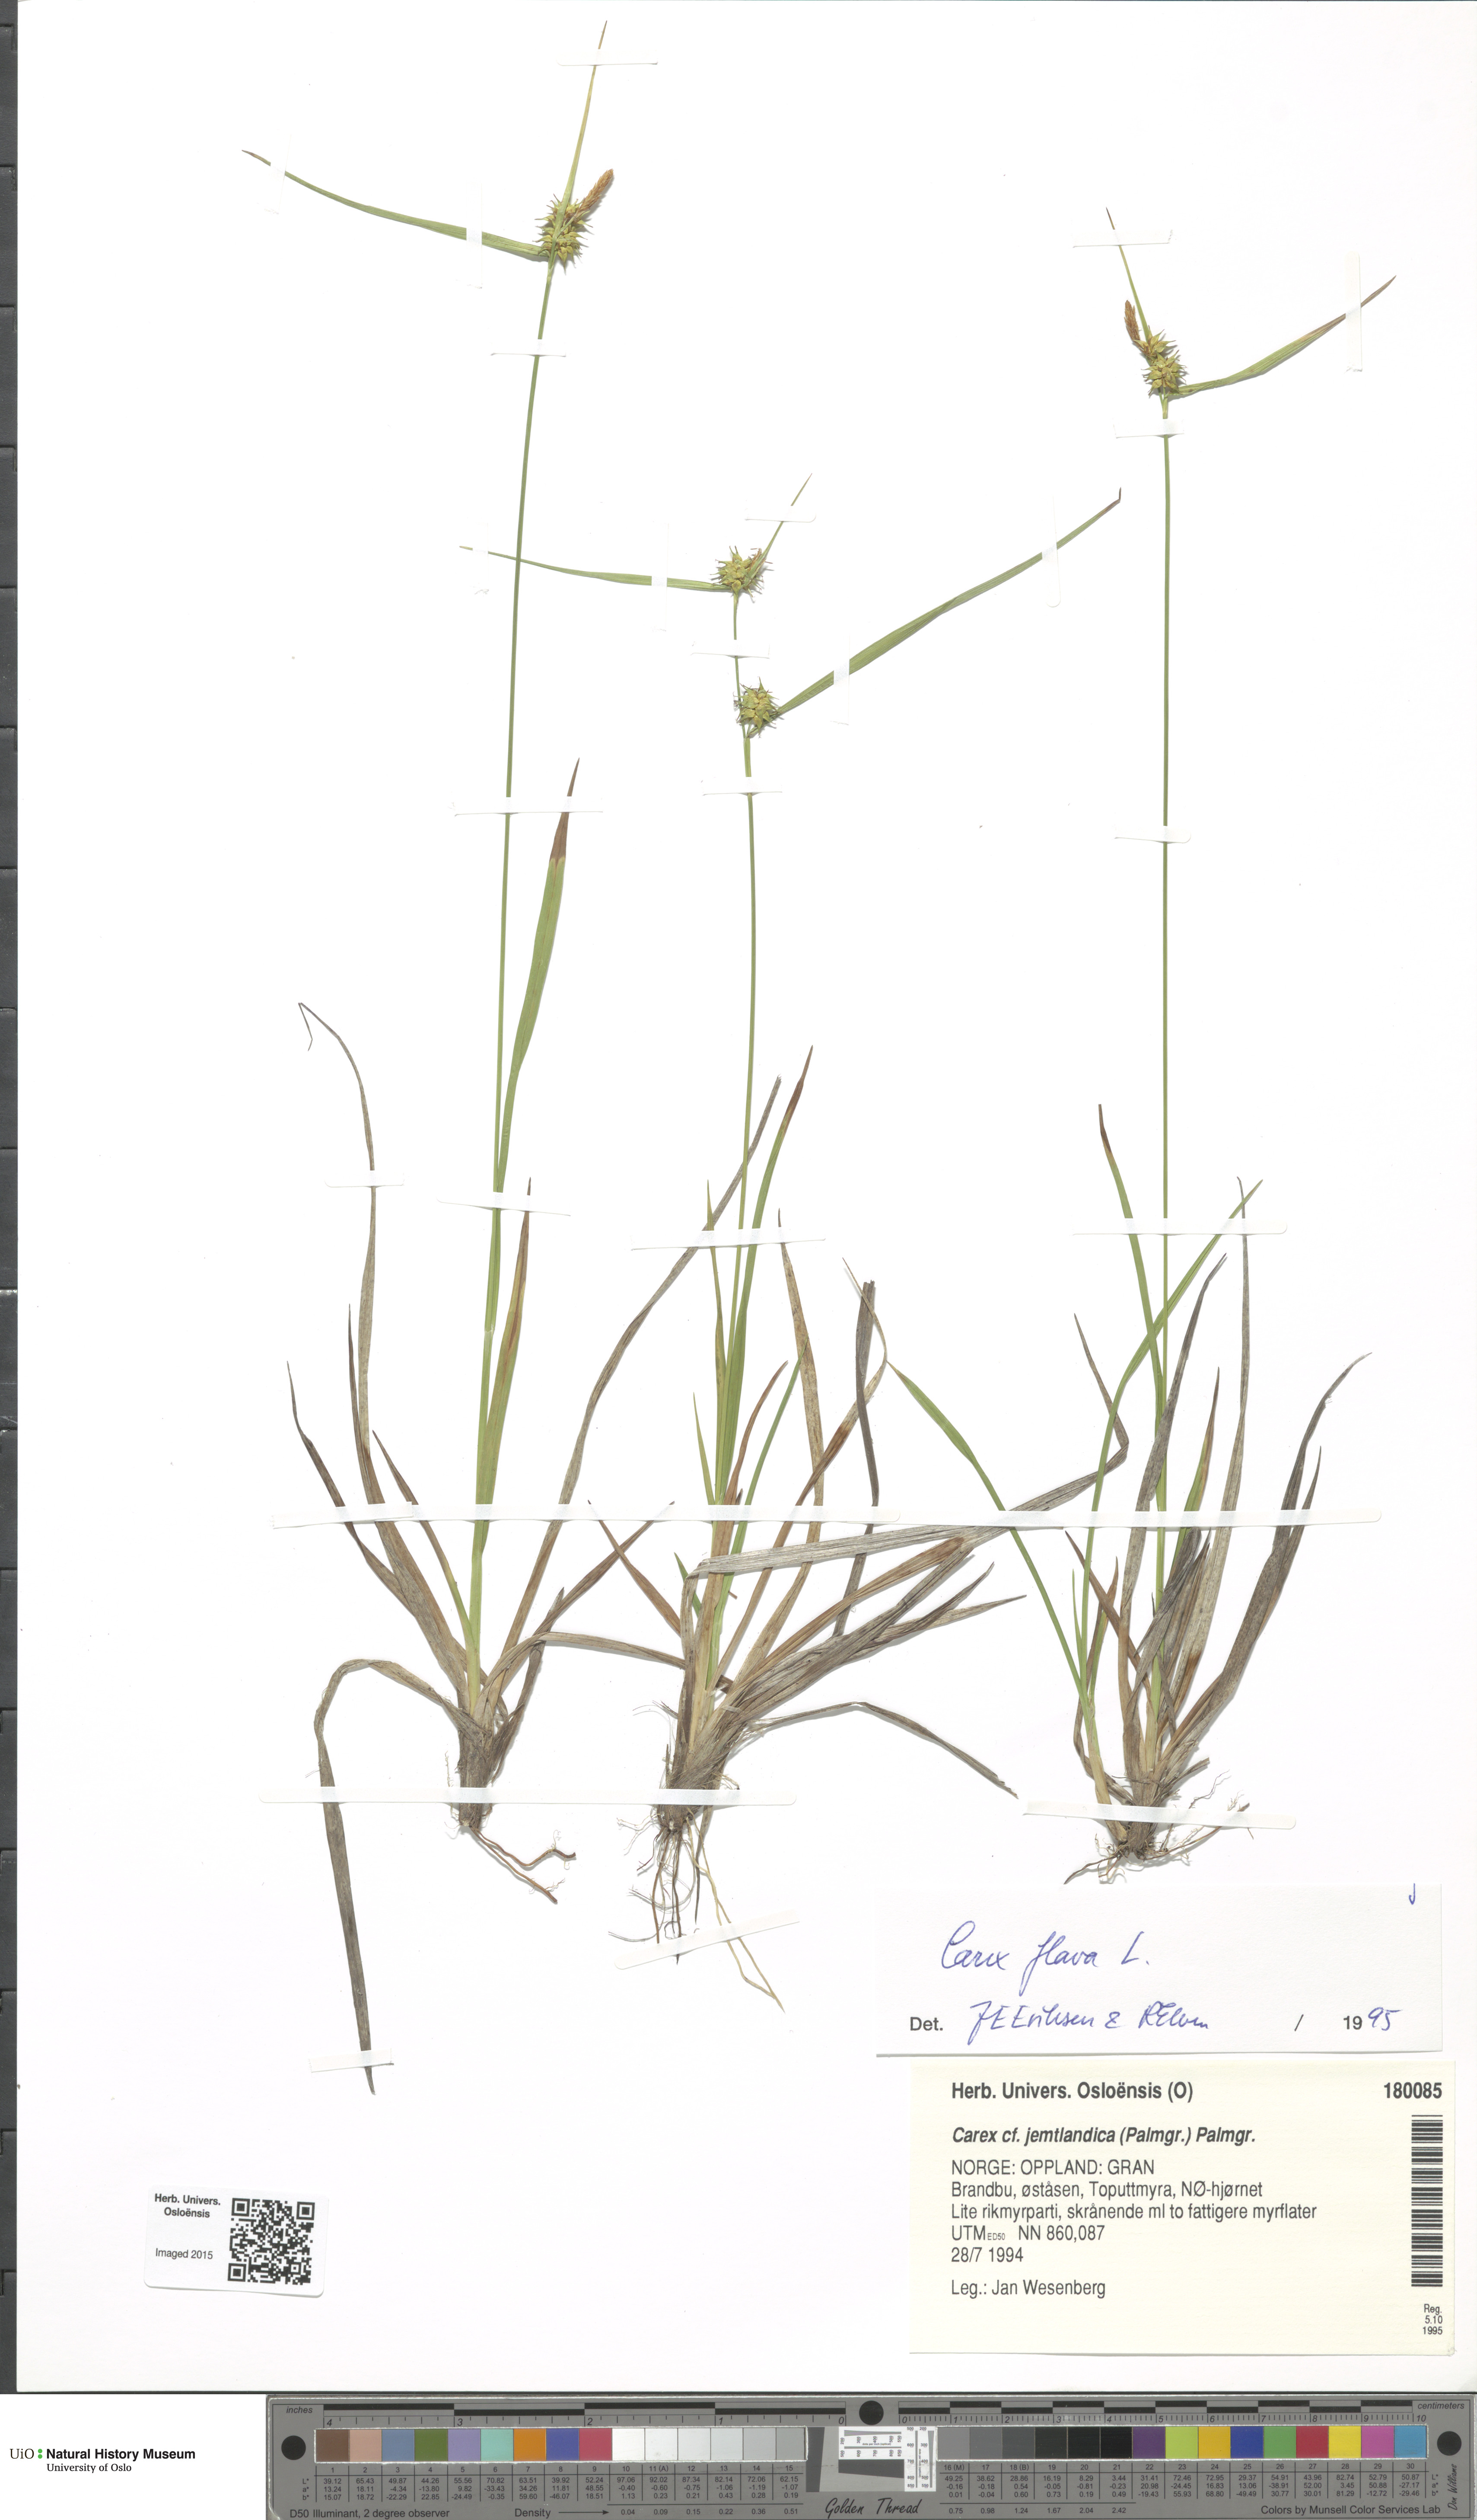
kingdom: Plantae
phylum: Tracheophyta
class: Liliopsida
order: Poales
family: Cyperaceae
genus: Carex
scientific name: Carex flava
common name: Large yellow-sedge
